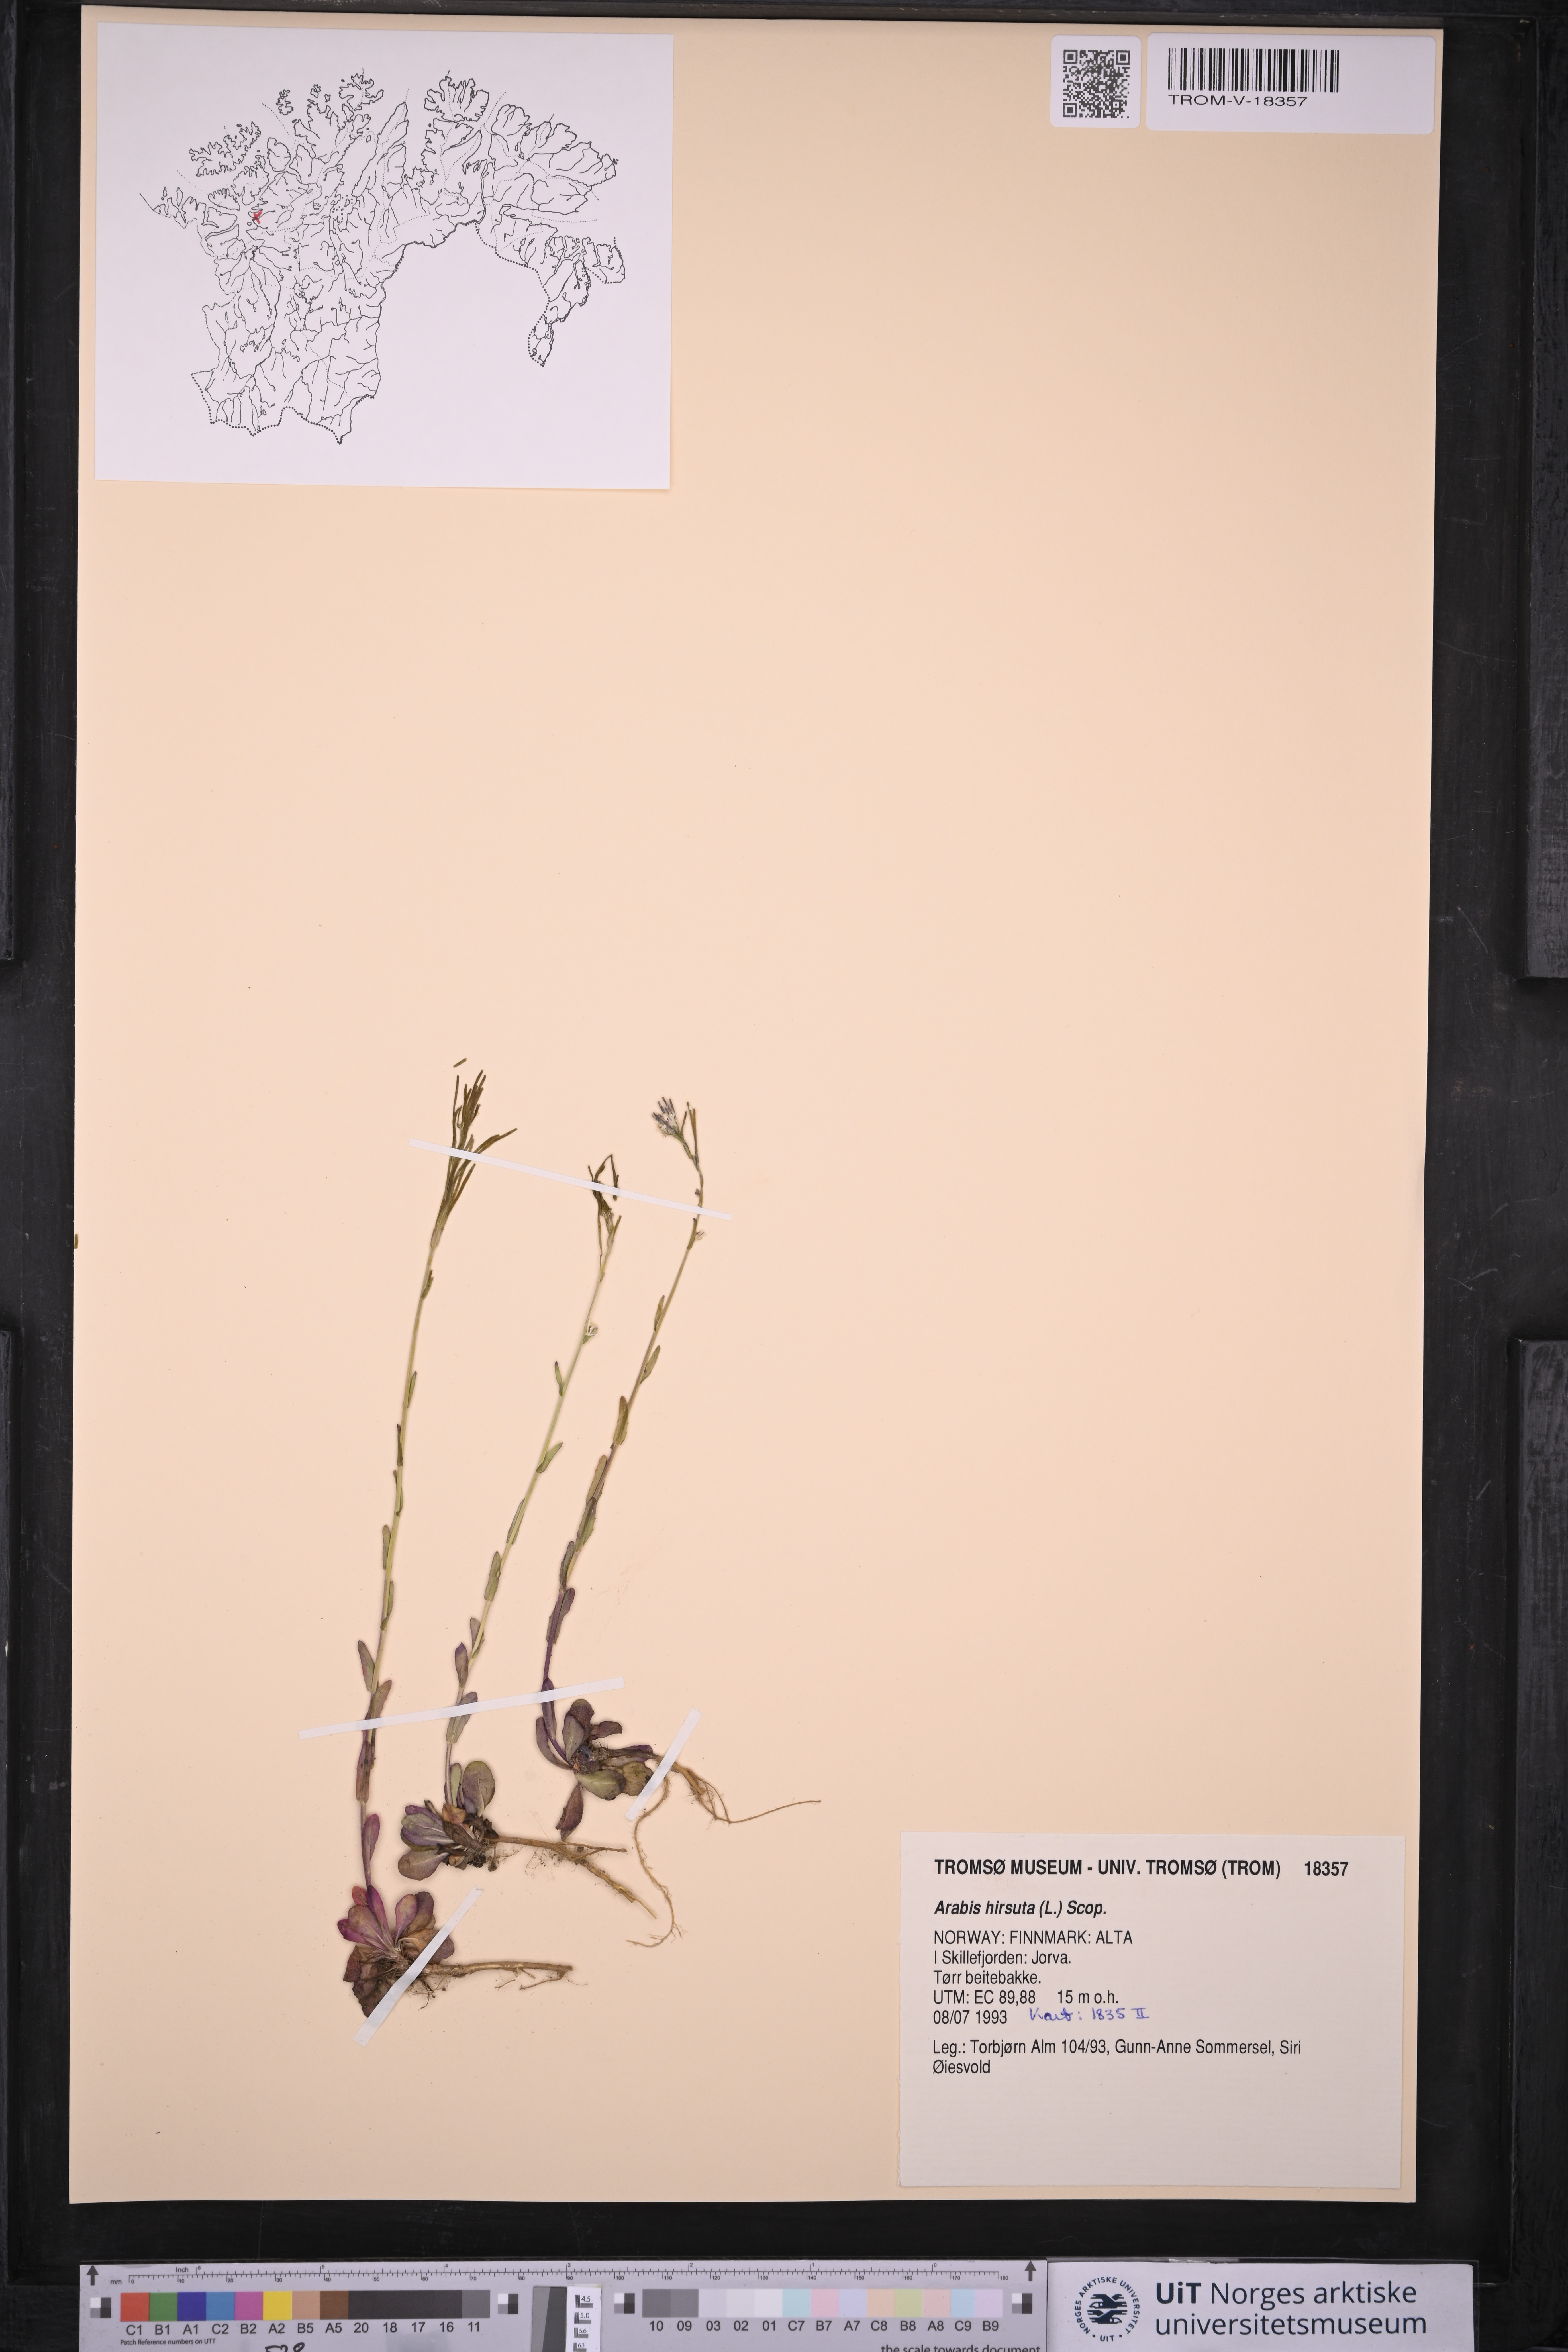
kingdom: Plantae
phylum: Tracheophyta
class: Magnoliopsida
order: Brassicales
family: Brassicaceae
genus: Arabis
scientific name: Arabis hirsuta
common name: Hairy rock-cress
